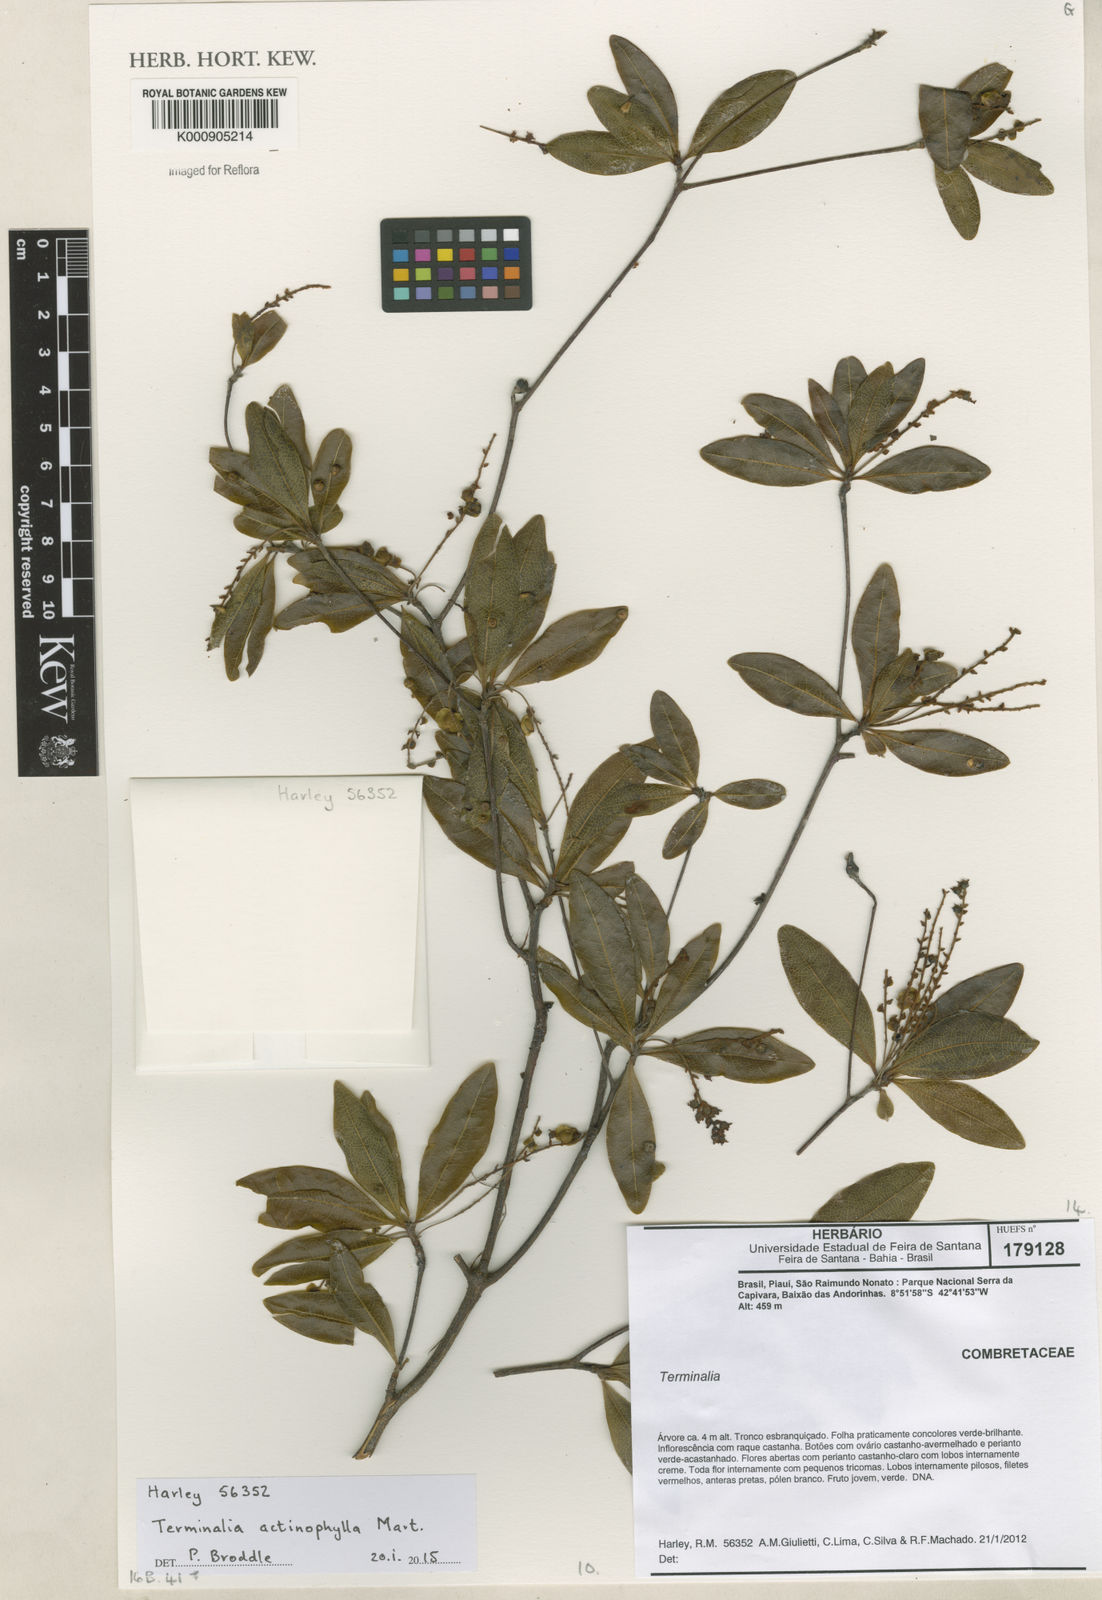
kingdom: Plantae
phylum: Tracheophyta
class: Magnoliopsida
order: Myrtales
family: Combretaceae
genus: Terminalia
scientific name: Terminalia actinophylla
